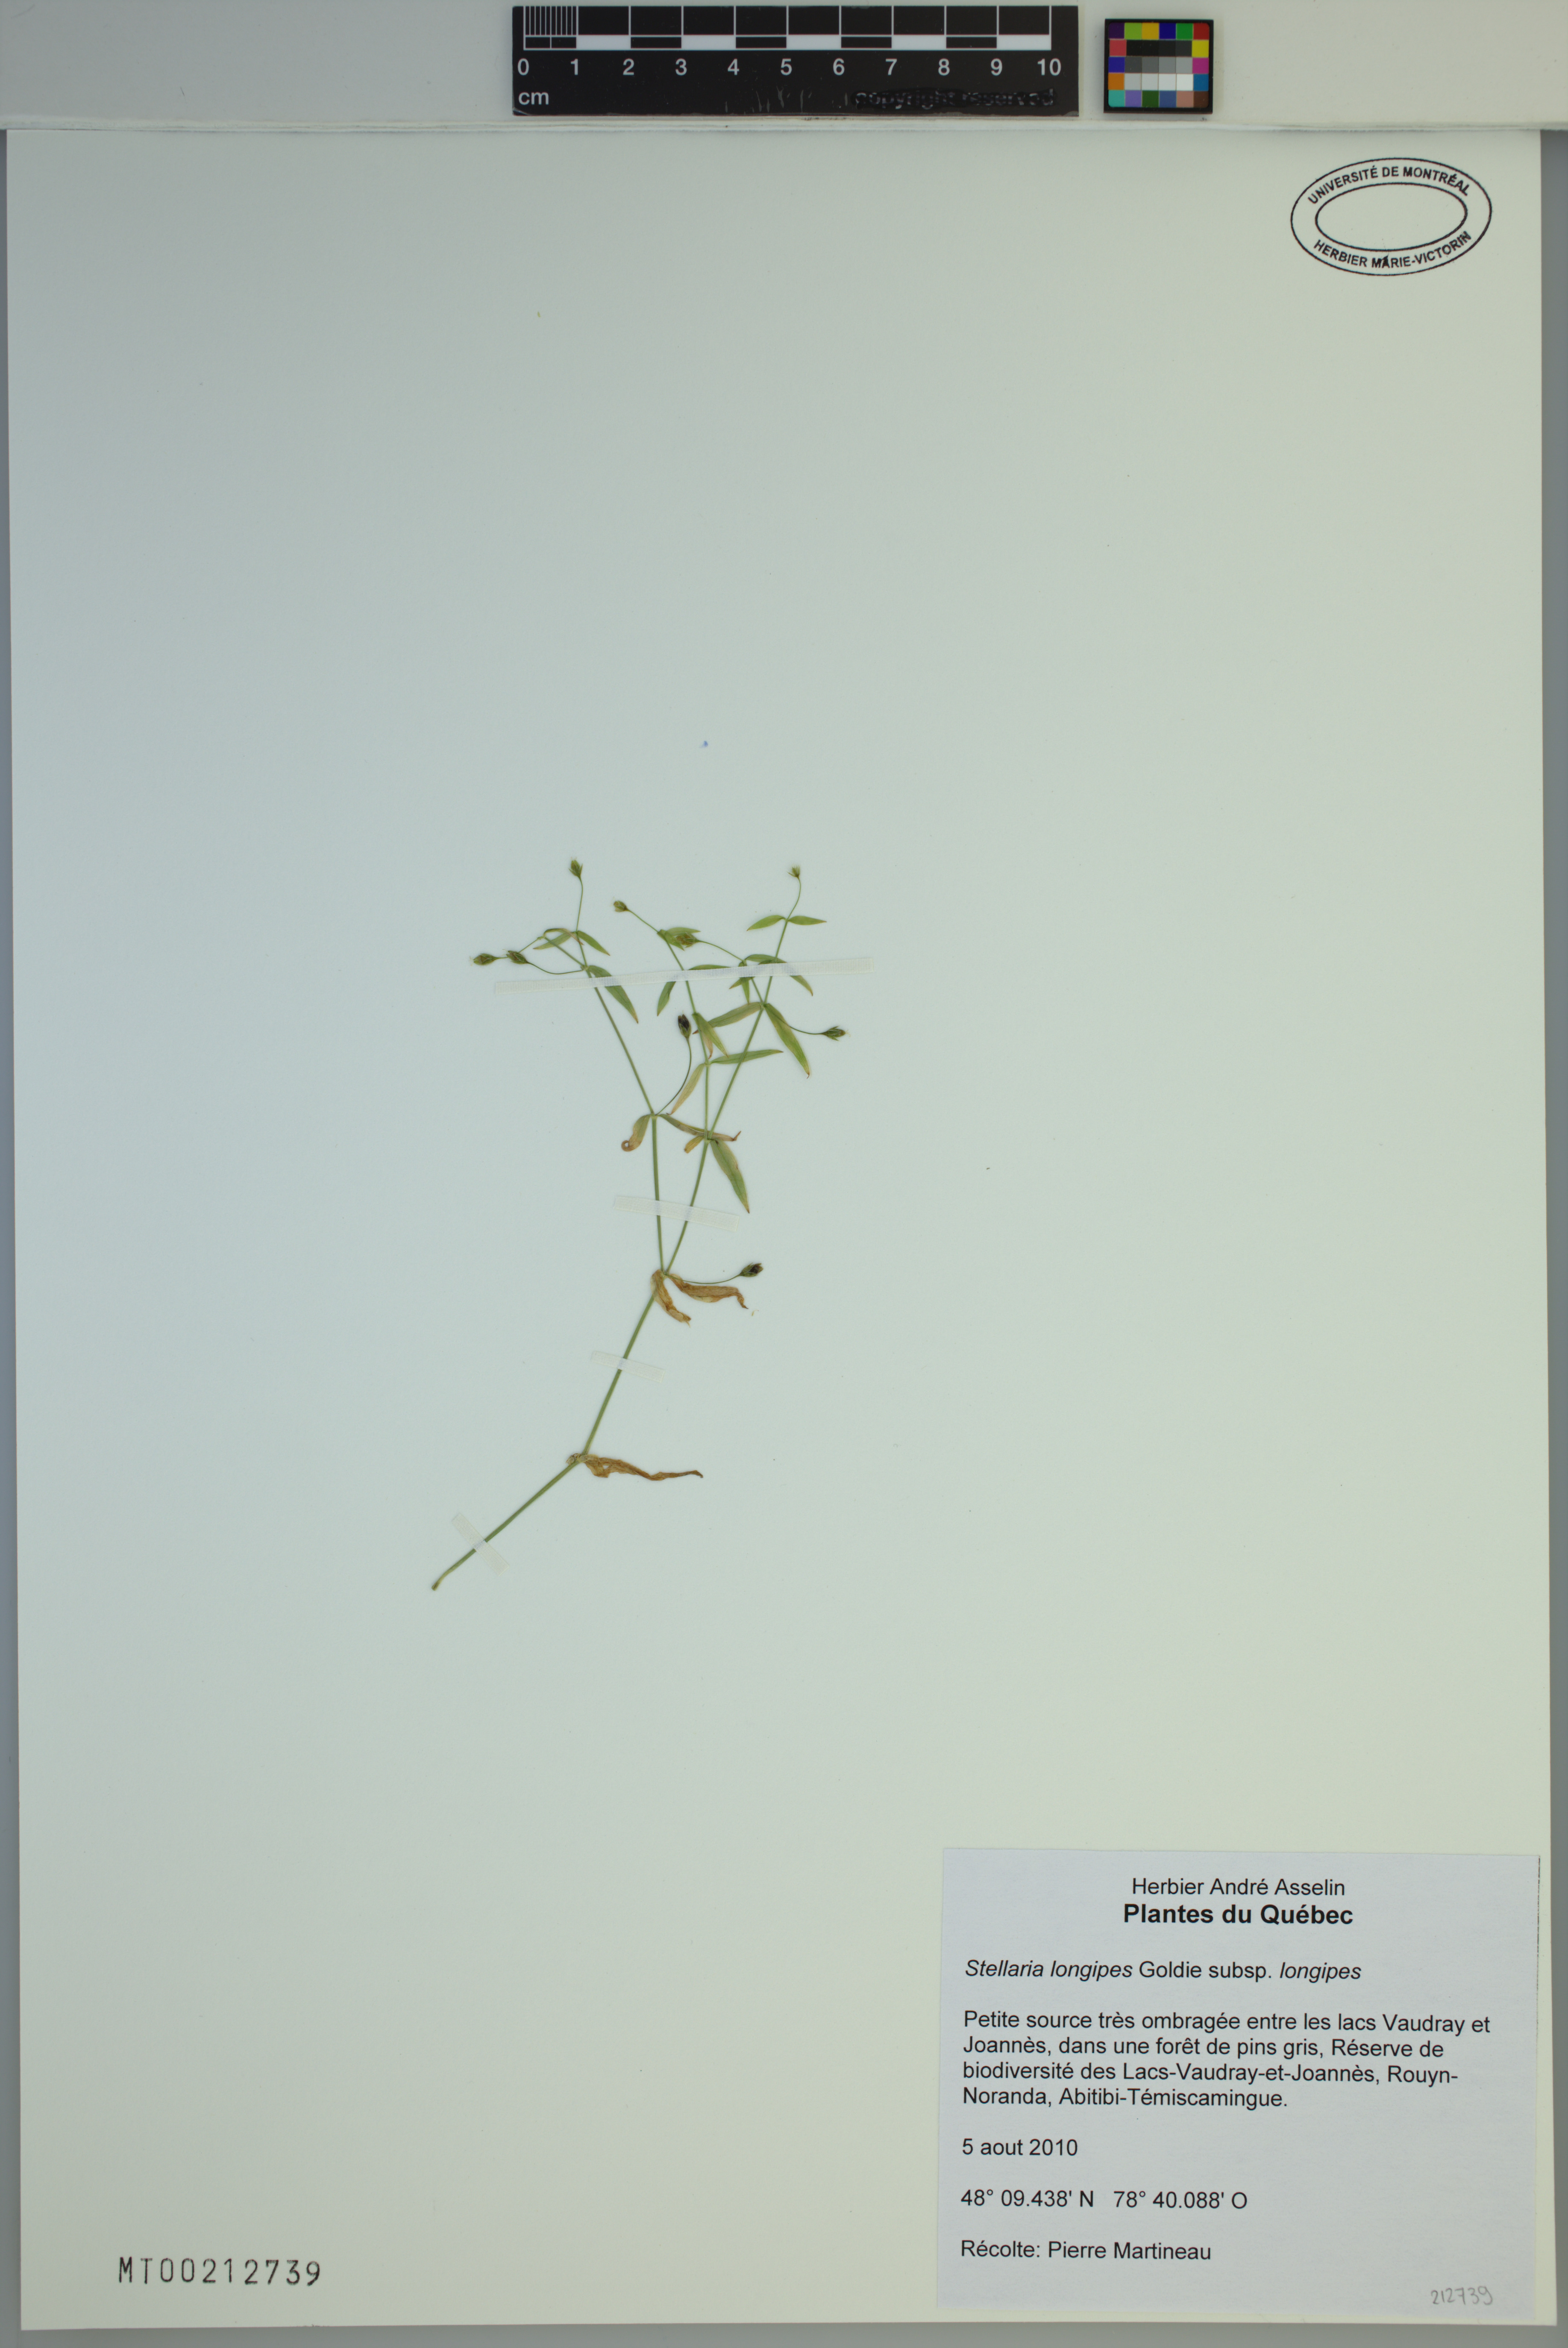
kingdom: Plantae
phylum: Tracheophyta
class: Magnoliopsida
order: Caryophyllales
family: Caryophyllaceae
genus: Stellaria
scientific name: Stellaria longipes
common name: Goldie's starwort
